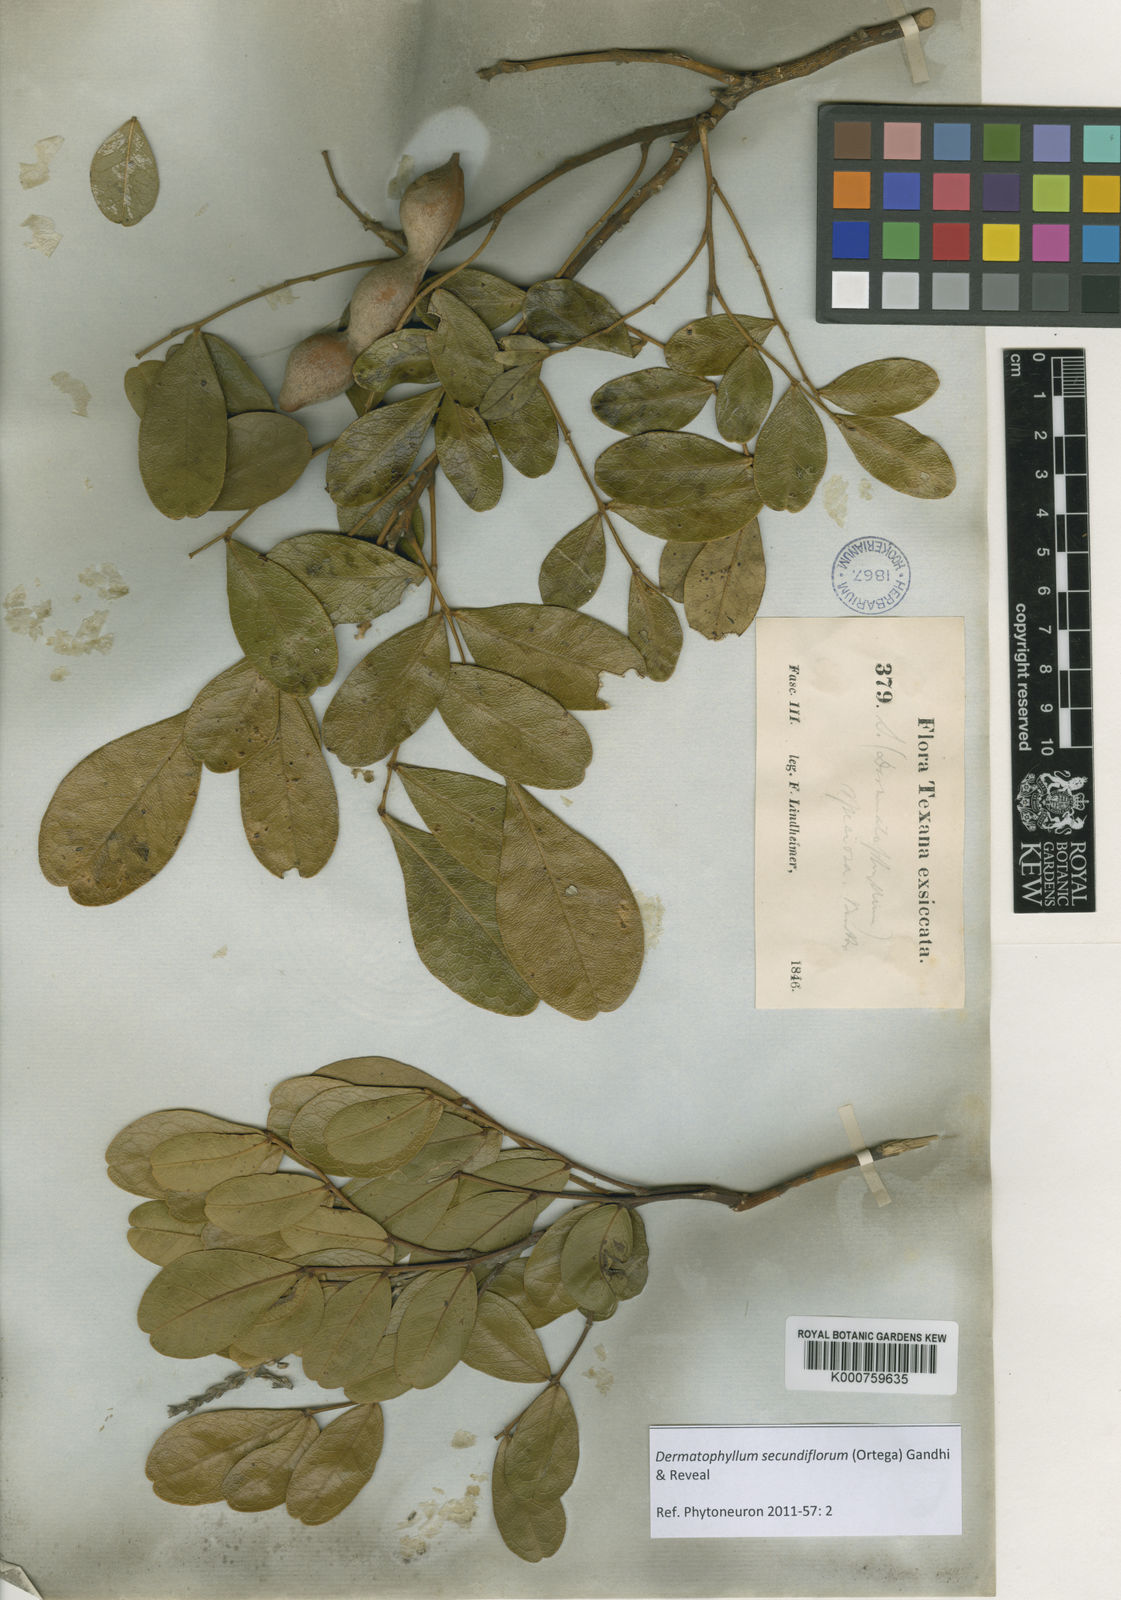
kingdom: Plantae
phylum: Tracheophyta
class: Magnoliopsida
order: Fabales
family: Fabaceae
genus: Dermatophyllum
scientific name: Dermatophyllum secundiflorum
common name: Texas-mountain-laurel
